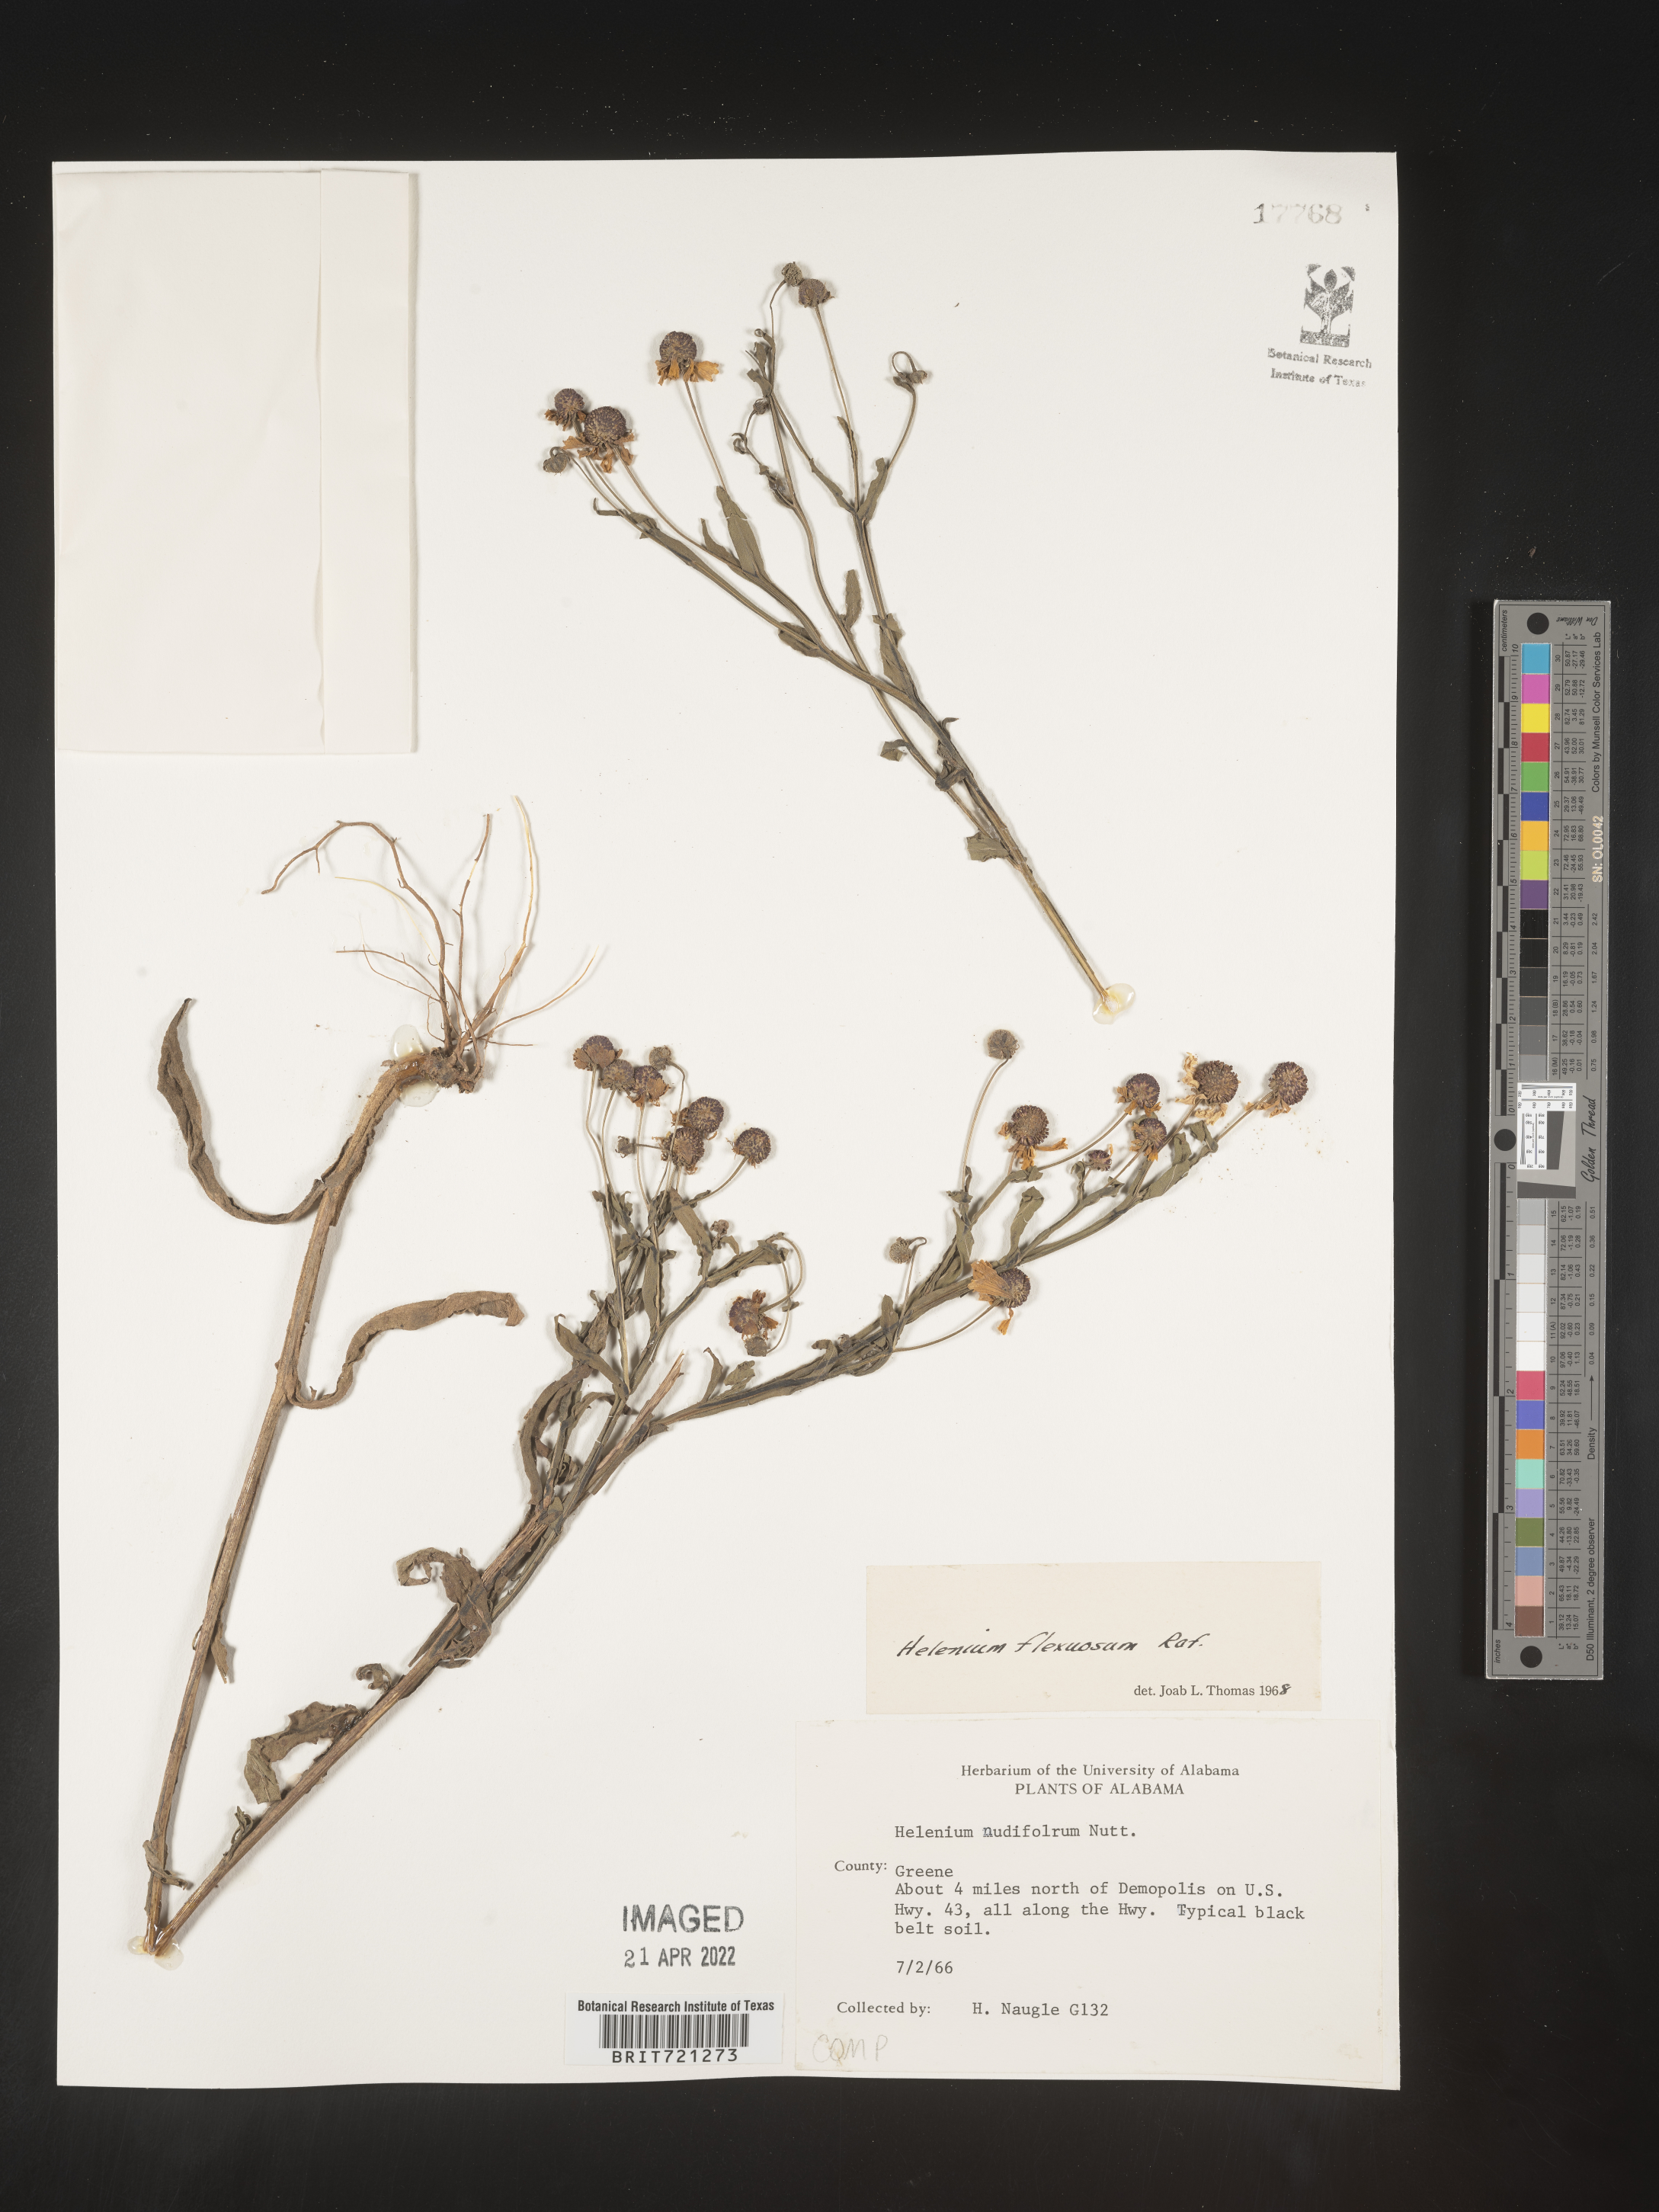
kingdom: Plantae
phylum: Tracheophyta
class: Magnoliopsida
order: Asterales
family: Asteraceae
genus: Helenium
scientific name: Helenium flexuosum
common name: Naked-flowered sneezeweed
